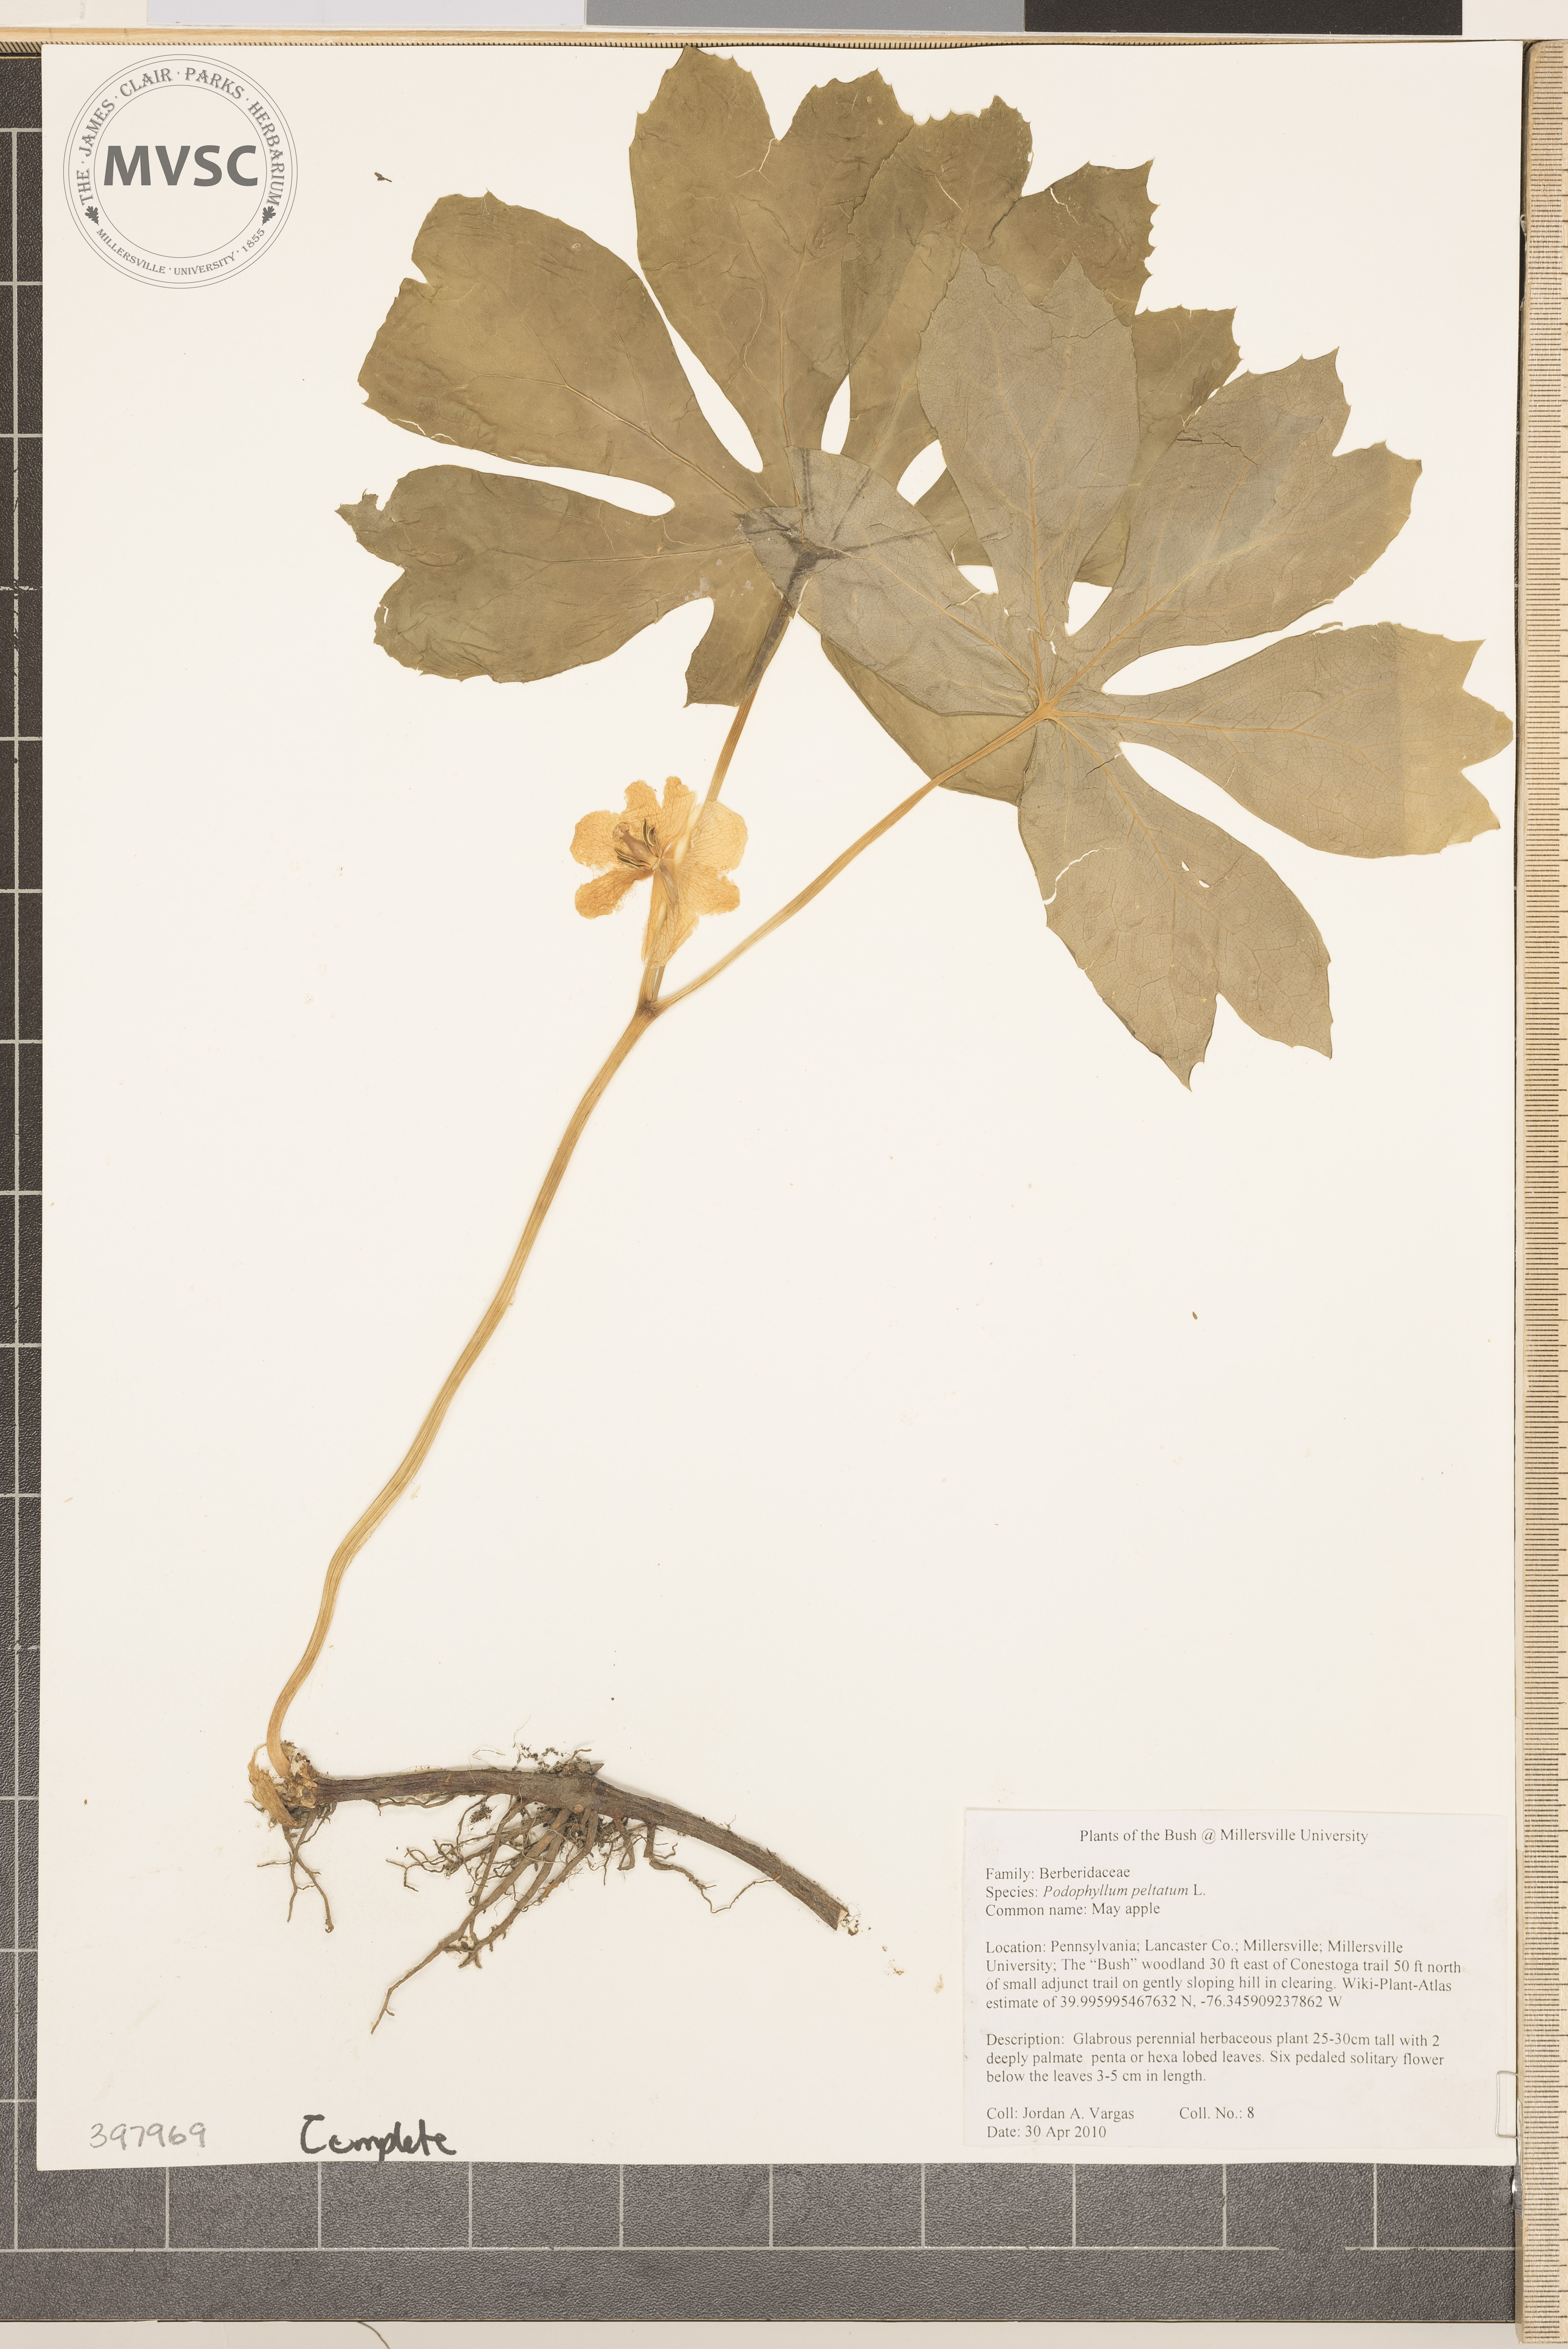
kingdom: Plantae
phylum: Tracheophyta
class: Magnoliopsida
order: Ranunculales
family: Berberidaceae
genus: Podophyllum
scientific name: Podophyllum peltatum
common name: Mayapple
